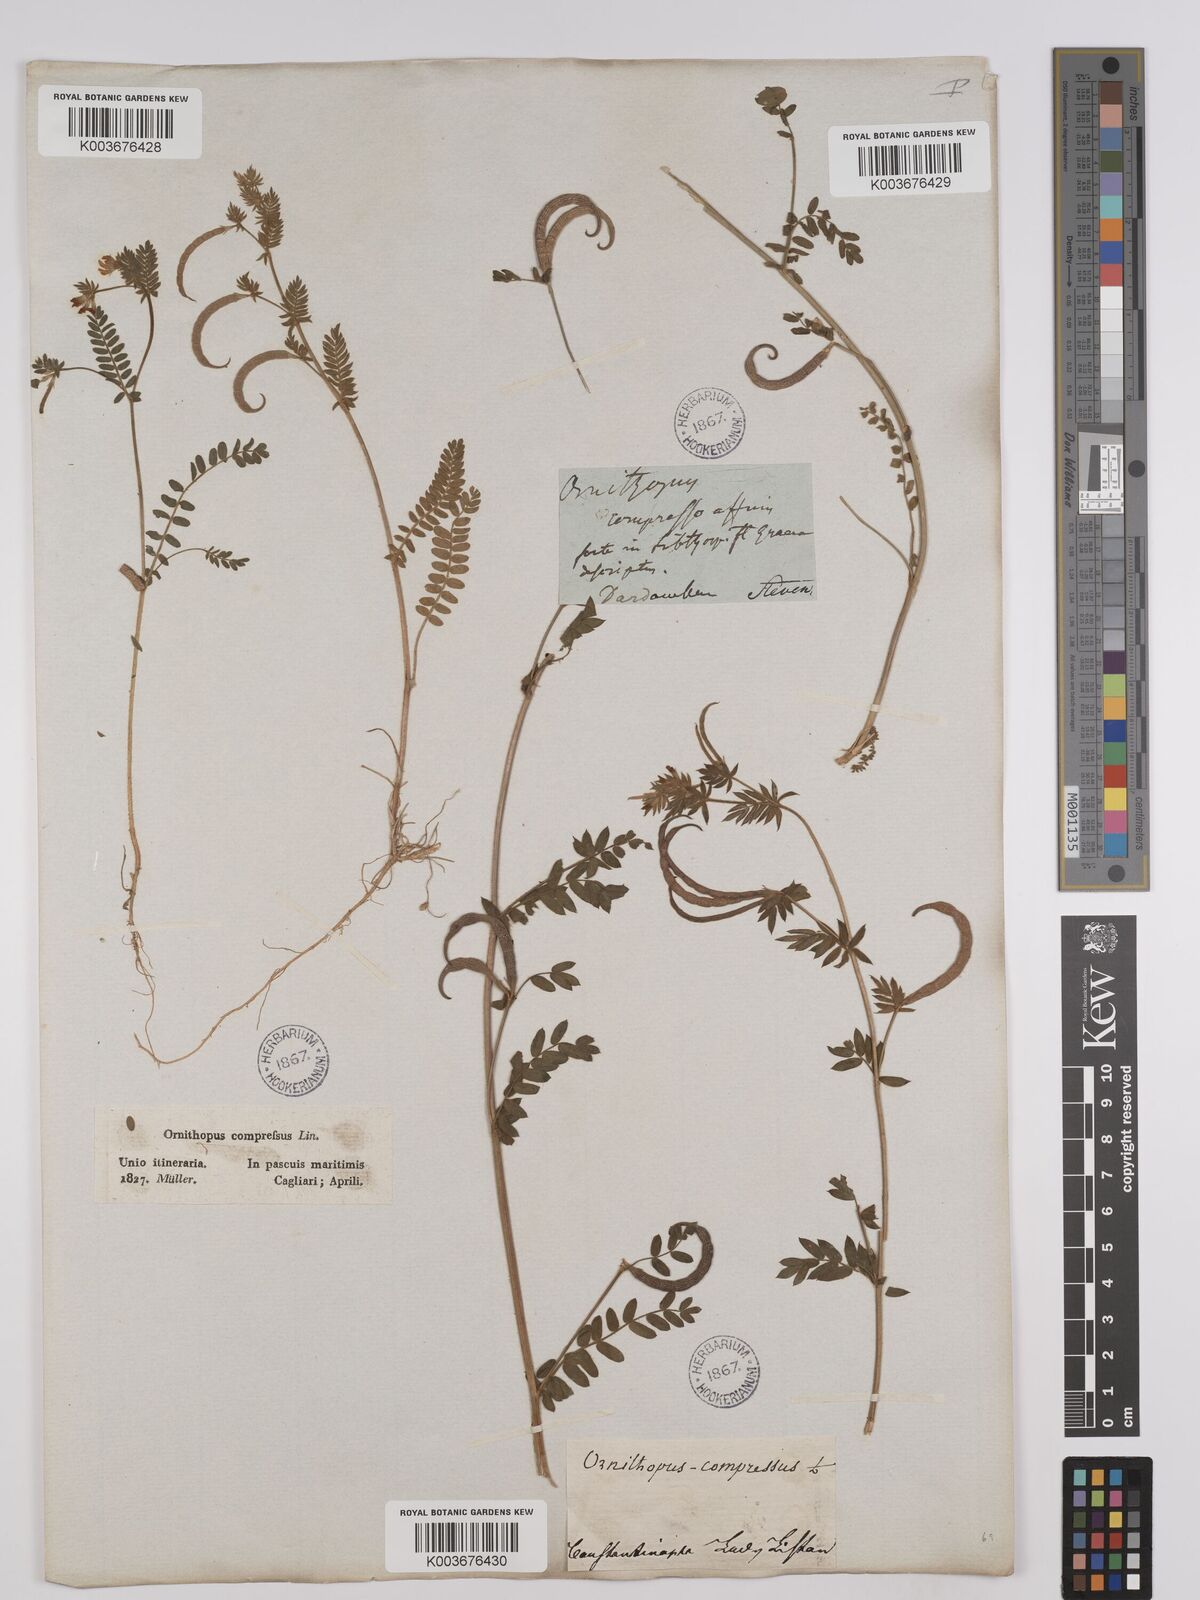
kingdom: Plantae
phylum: Tracheophyta
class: Magnoliopsida
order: Fabales
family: Fabaceae
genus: Ornithopus
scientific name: Ornithopus compressus
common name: Yellow serradella
